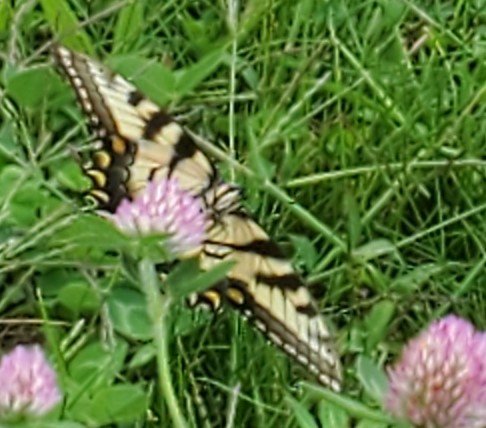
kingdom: Animalia
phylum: Arthropoda
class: Insecta
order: Lepidoptera
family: Papilionidae
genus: Pterourus
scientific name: Pterourus
